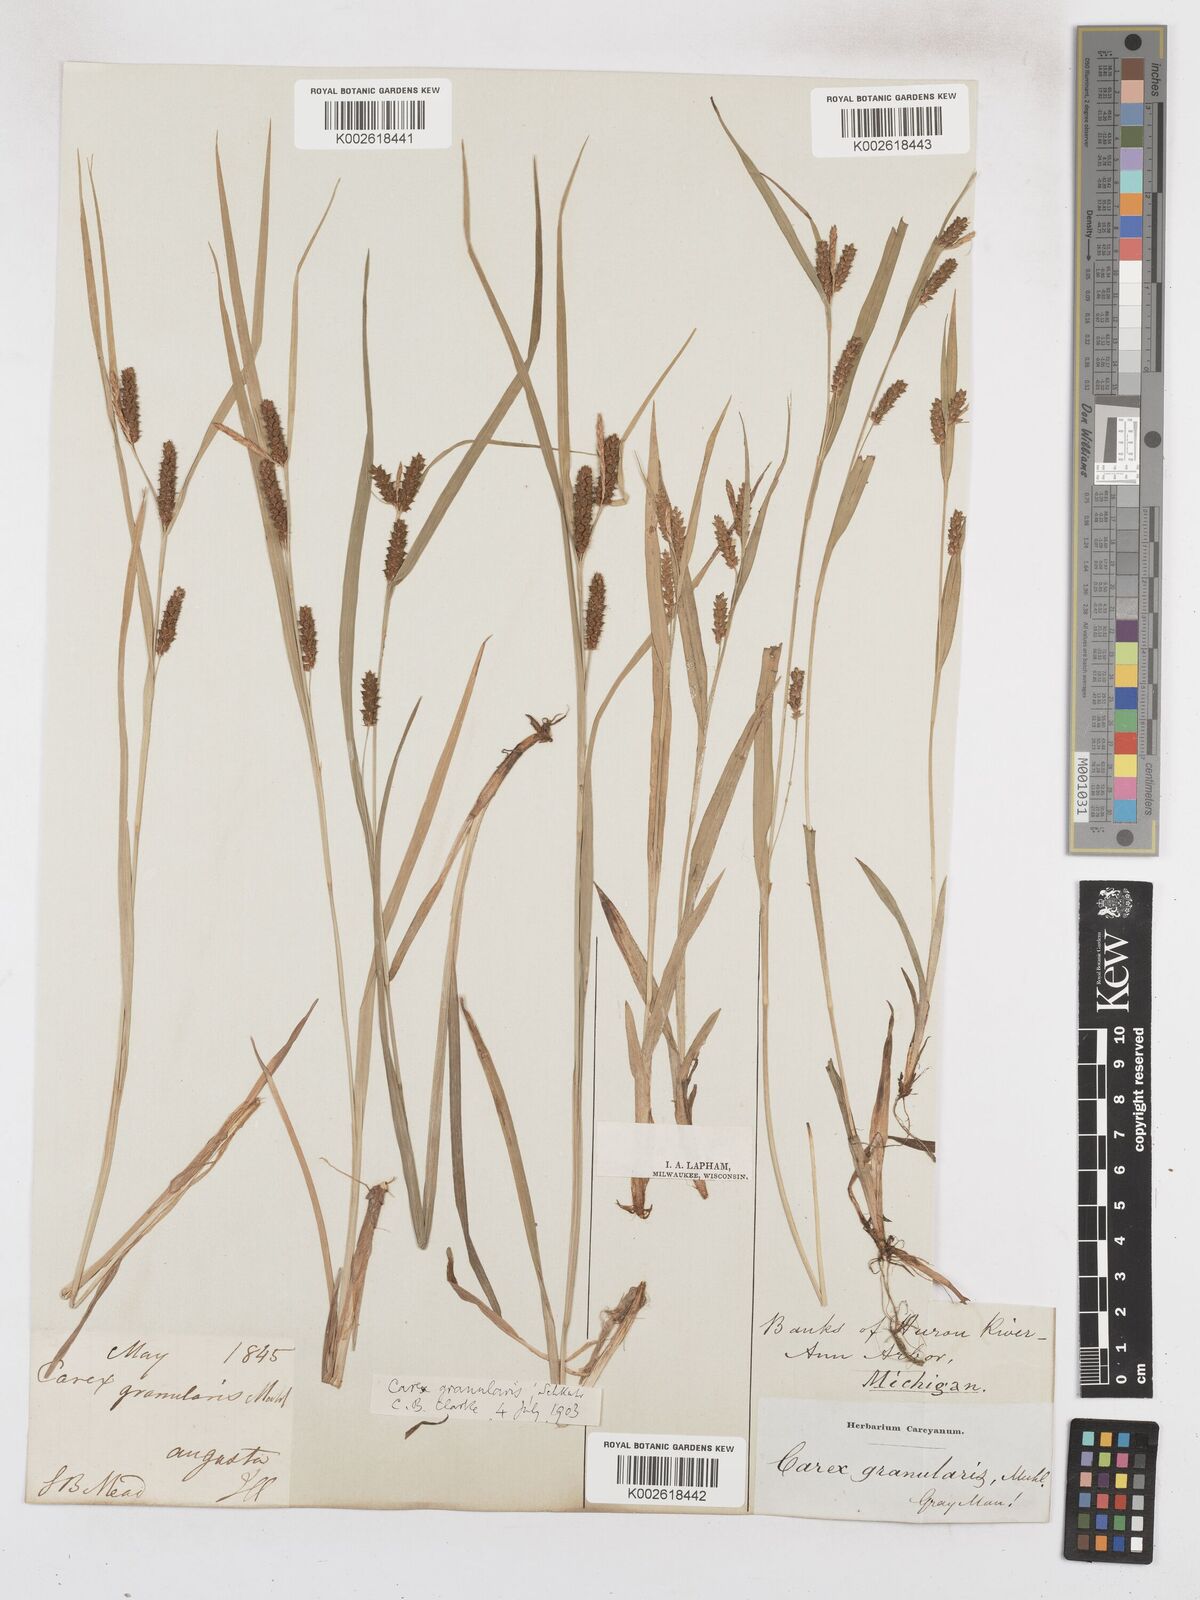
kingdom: Plantae
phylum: Tracheophyta
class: Liliopsida
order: Poales
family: Cyperaceae
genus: Carex
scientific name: Carex livida
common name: Livid sedge
